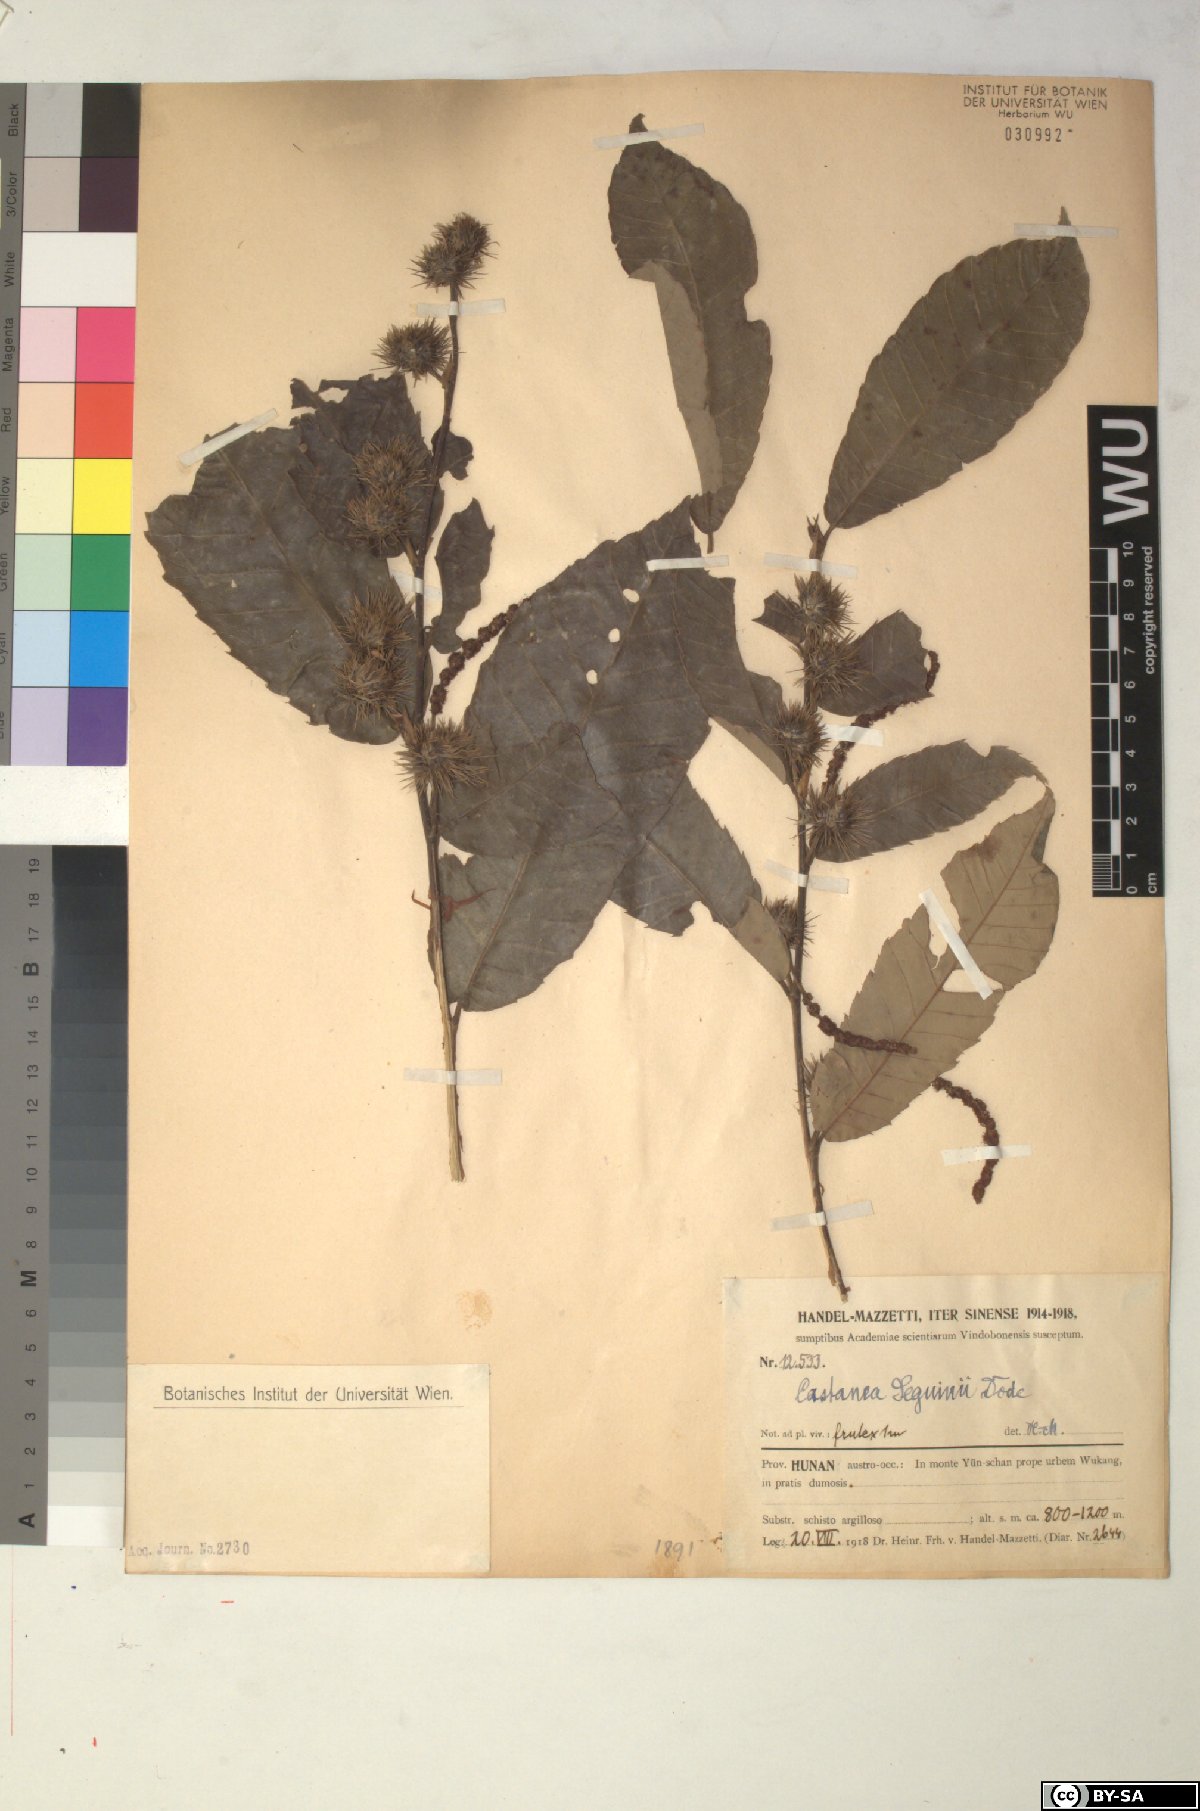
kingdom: Plantae
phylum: Tracheophyta
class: Magnoliopsida
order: Fagales
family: Fagaceae
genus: Castanea
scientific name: Castanea seguinii
